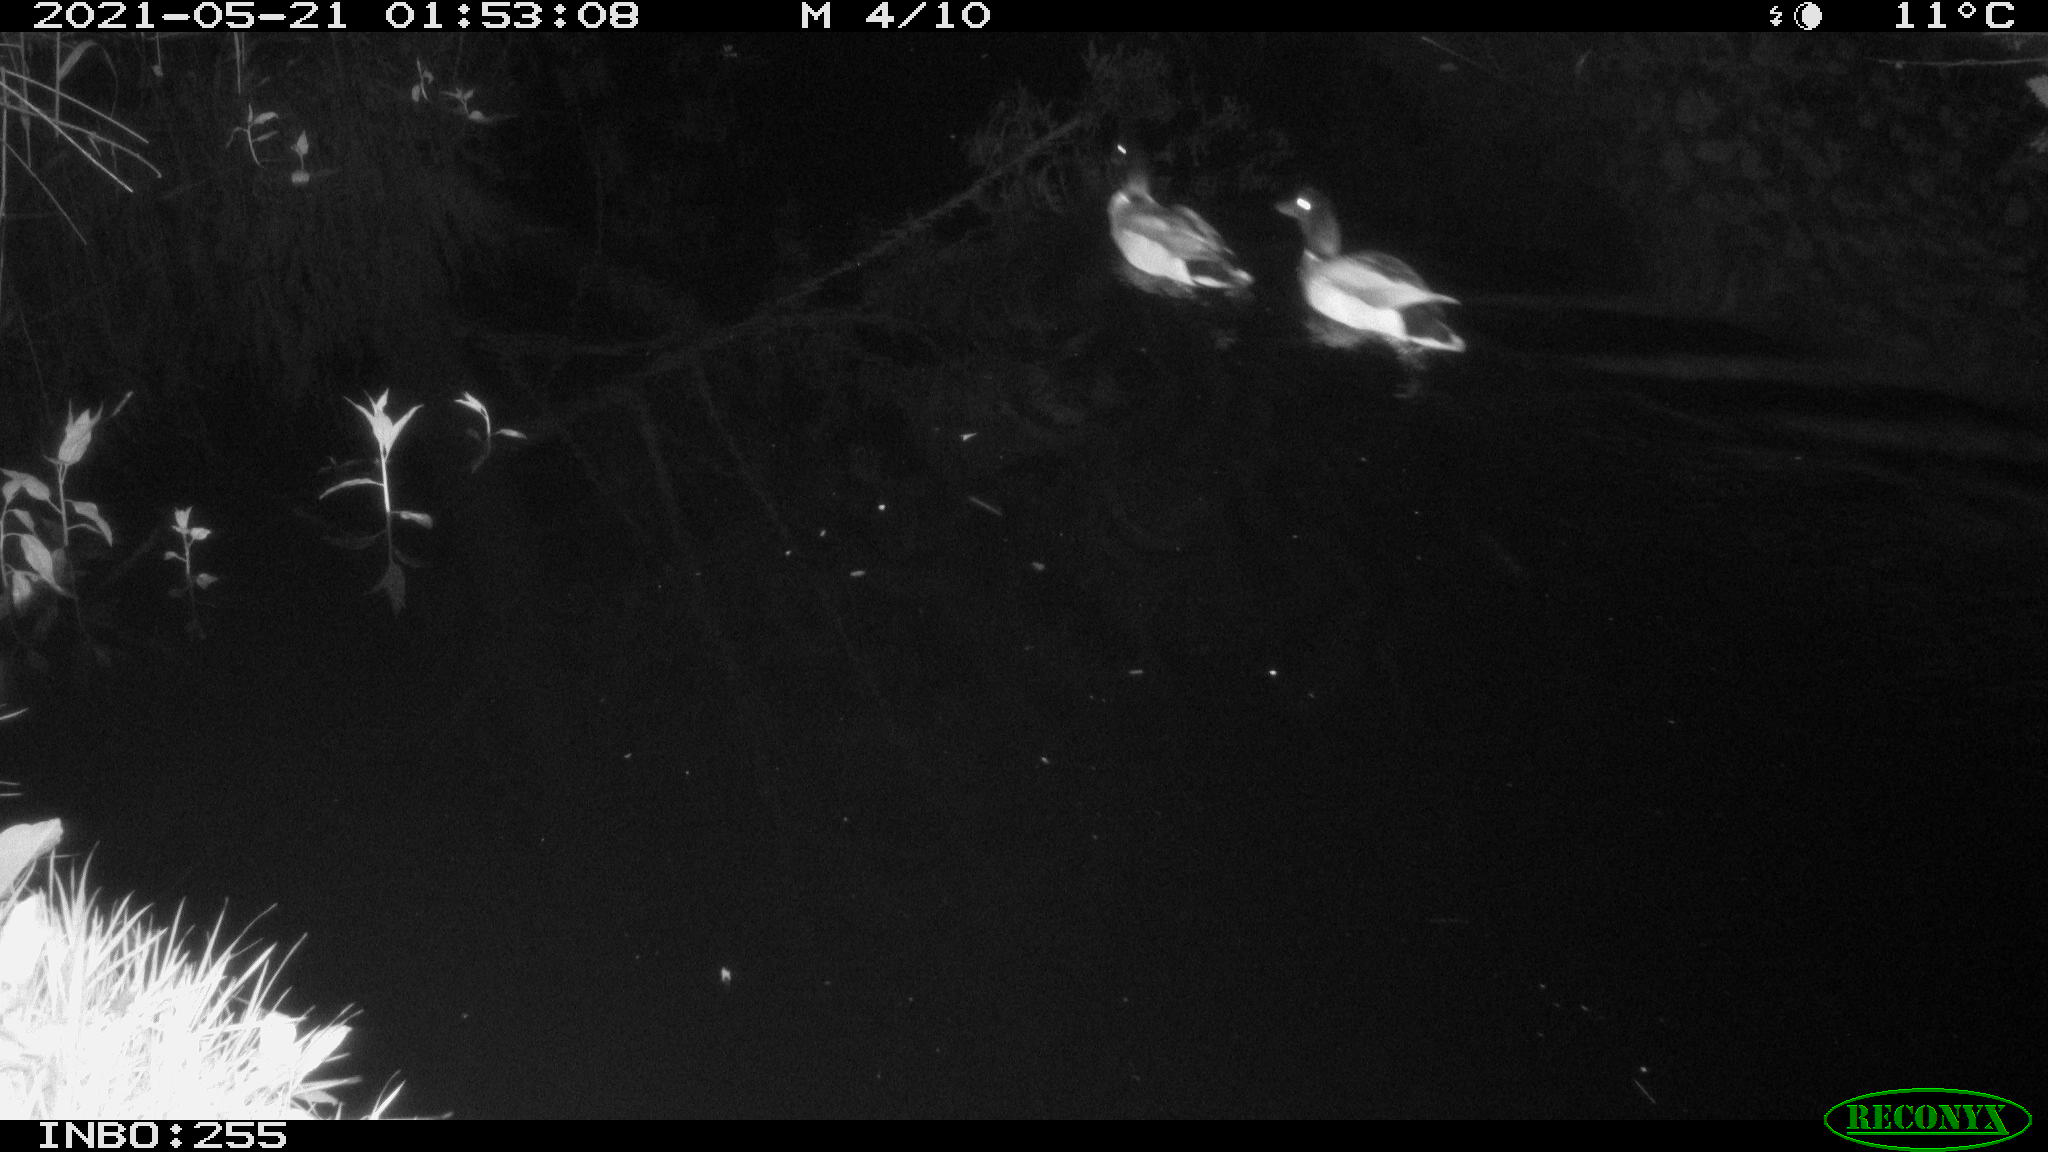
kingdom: Animalia
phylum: Chordata
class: Aves
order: Anseriformes
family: Anatidae
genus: Anas
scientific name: Anas platyrhynchos
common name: Mallard
